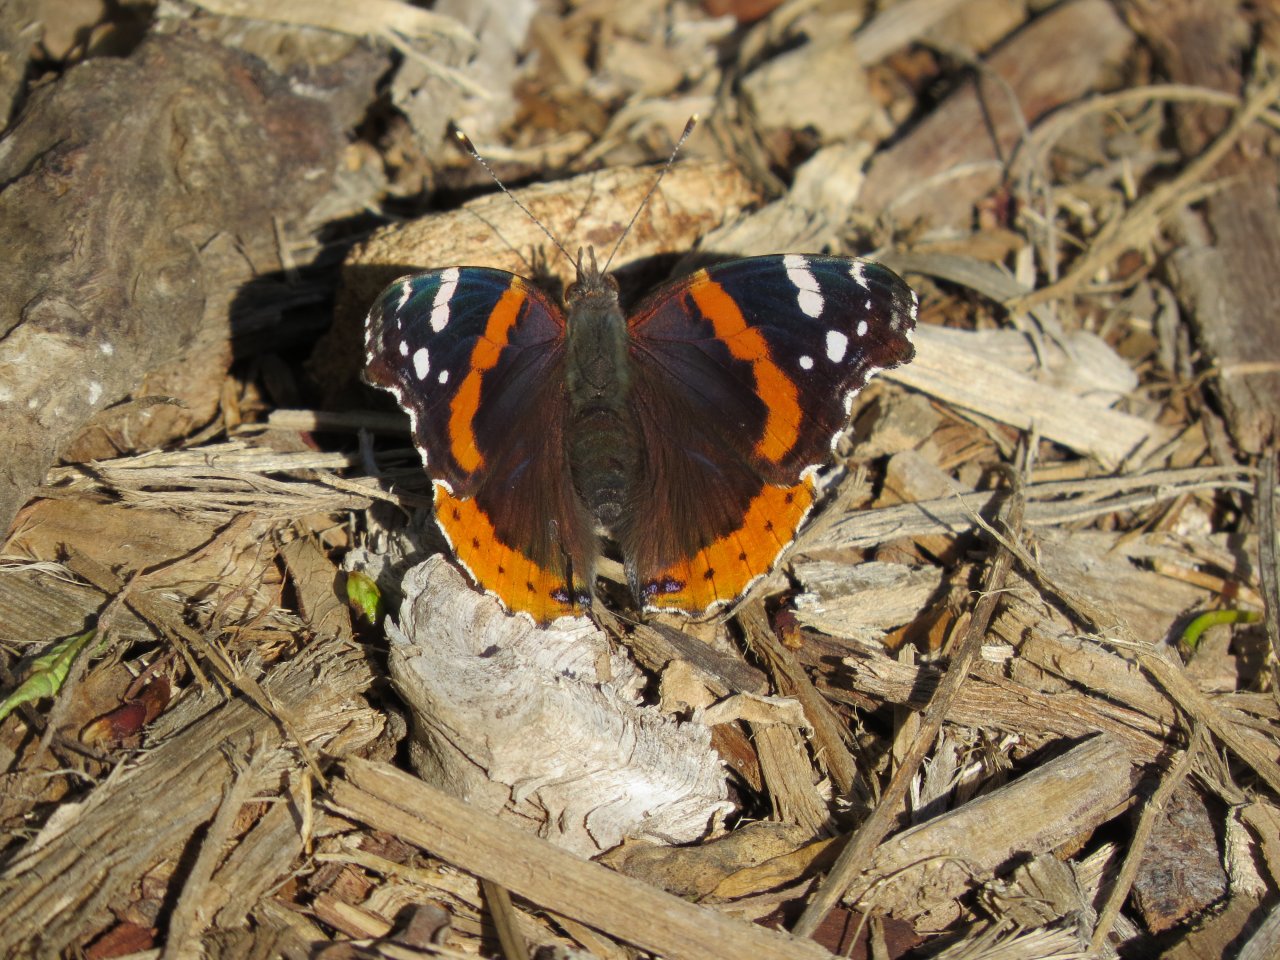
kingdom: Animalia
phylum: Arthropoda
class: Insecta
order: Lepidoptera
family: Nymphalidae
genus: Vanessa
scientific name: Vanessa atalanta
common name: Red Admiral
